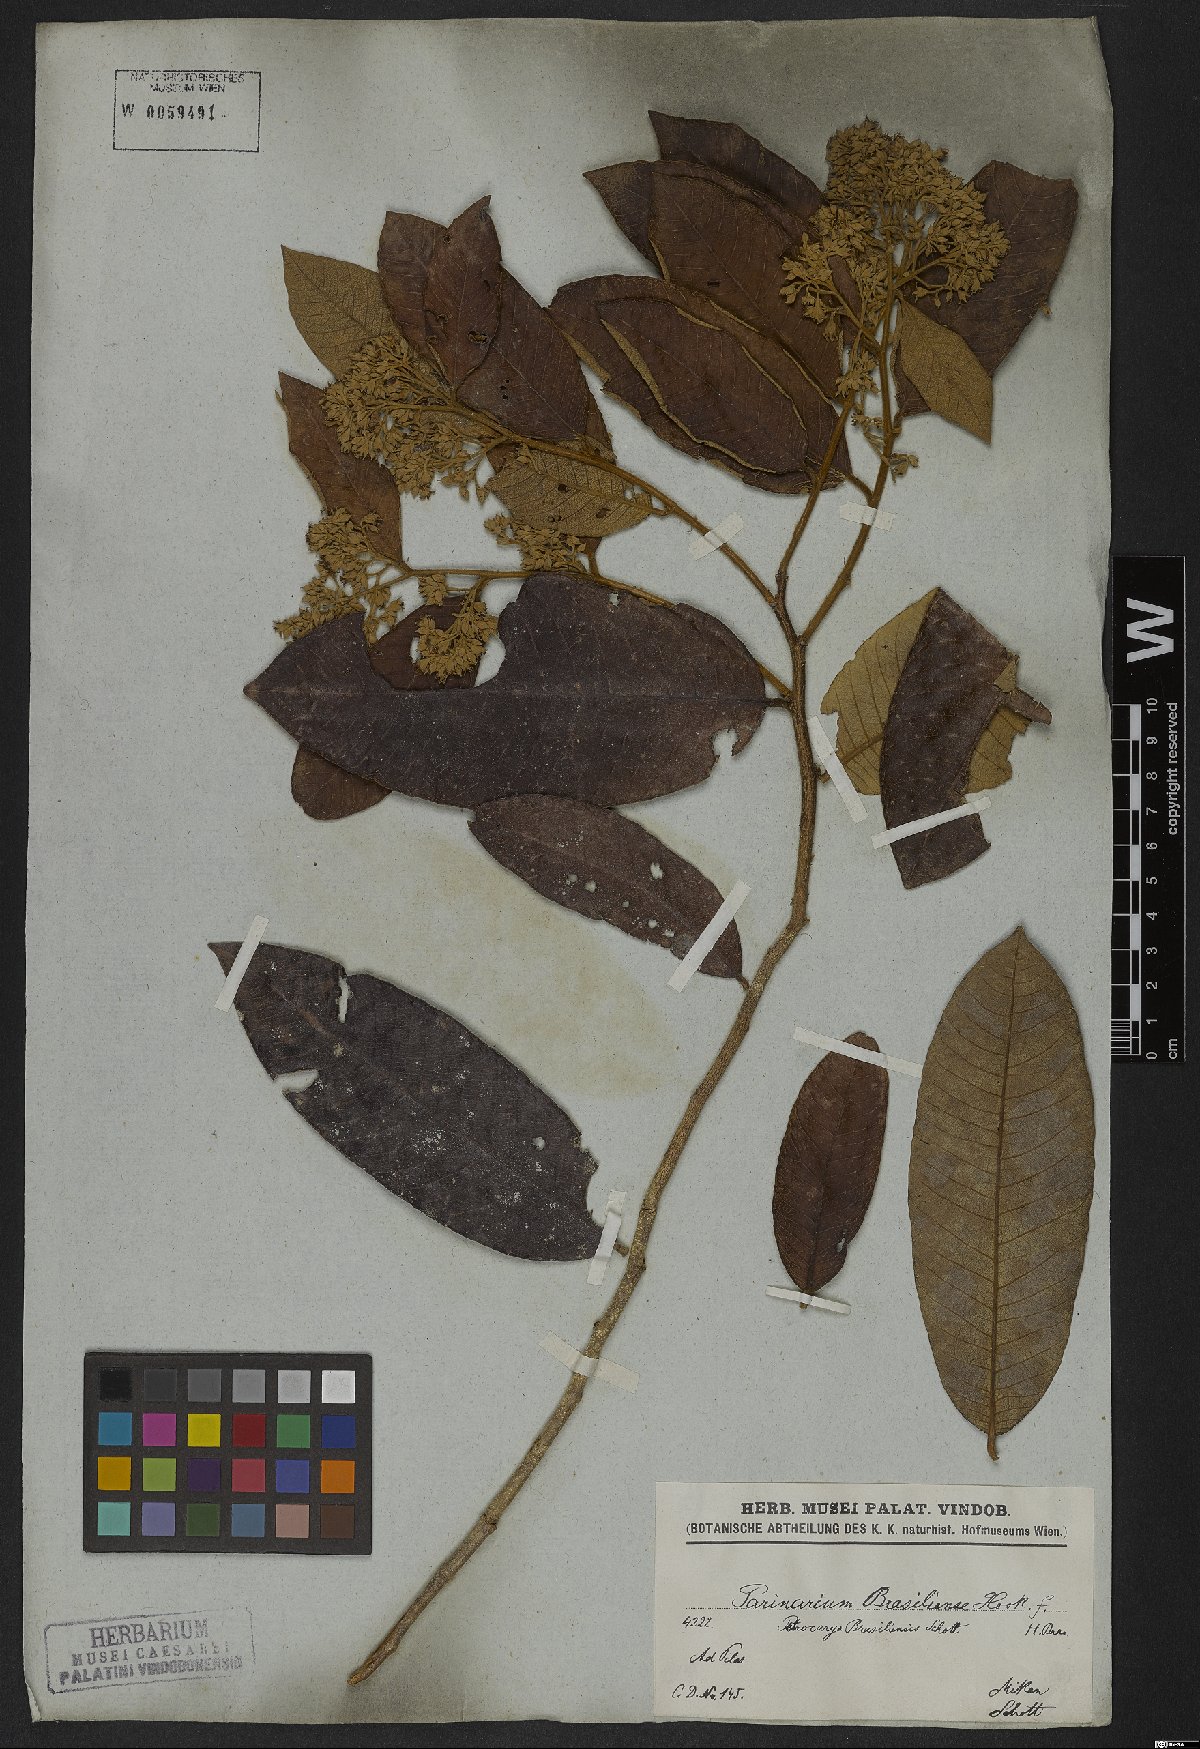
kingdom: Plantae
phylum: Tracheophyta
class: Magnoliopsida
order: Malpighiales
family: Chrysobalanaceae
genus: Parinari
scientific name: Parinari brasiliensis
